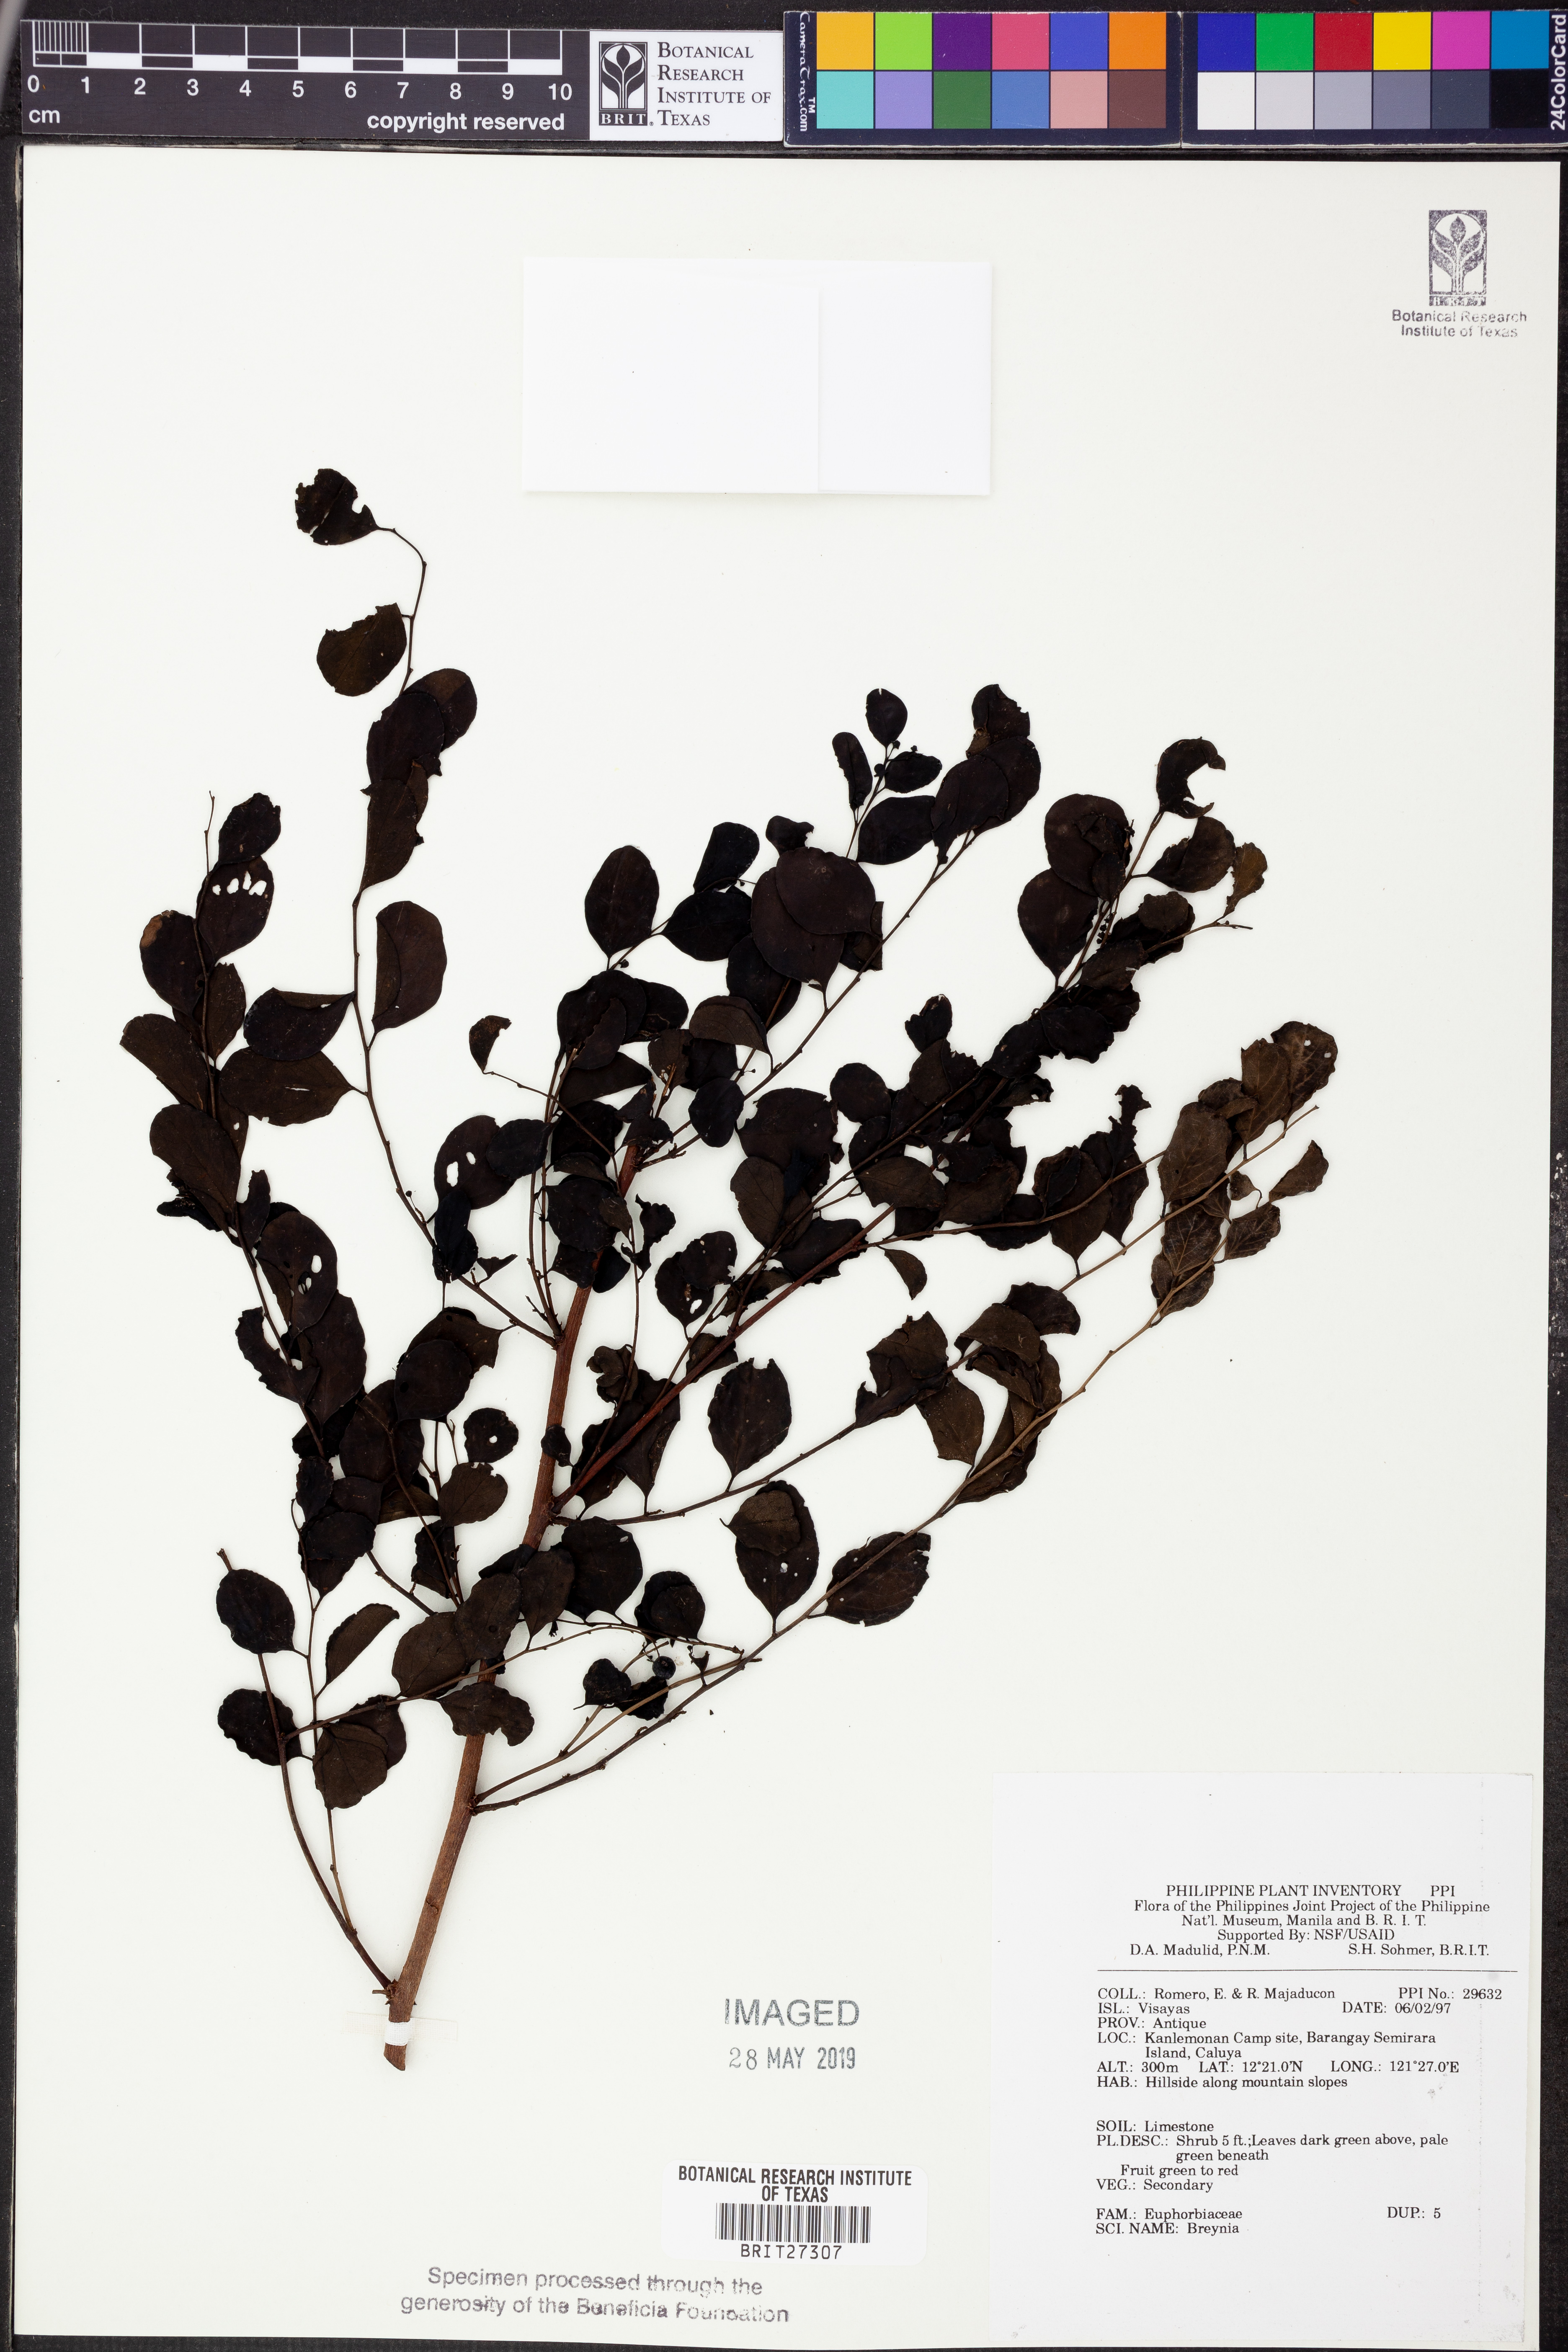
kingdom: Plantae
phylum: Tracheophyta
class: Magnoliopsida
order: Malpighiales
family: Phyllanthaceae
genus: Breynia
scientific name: Breynia
